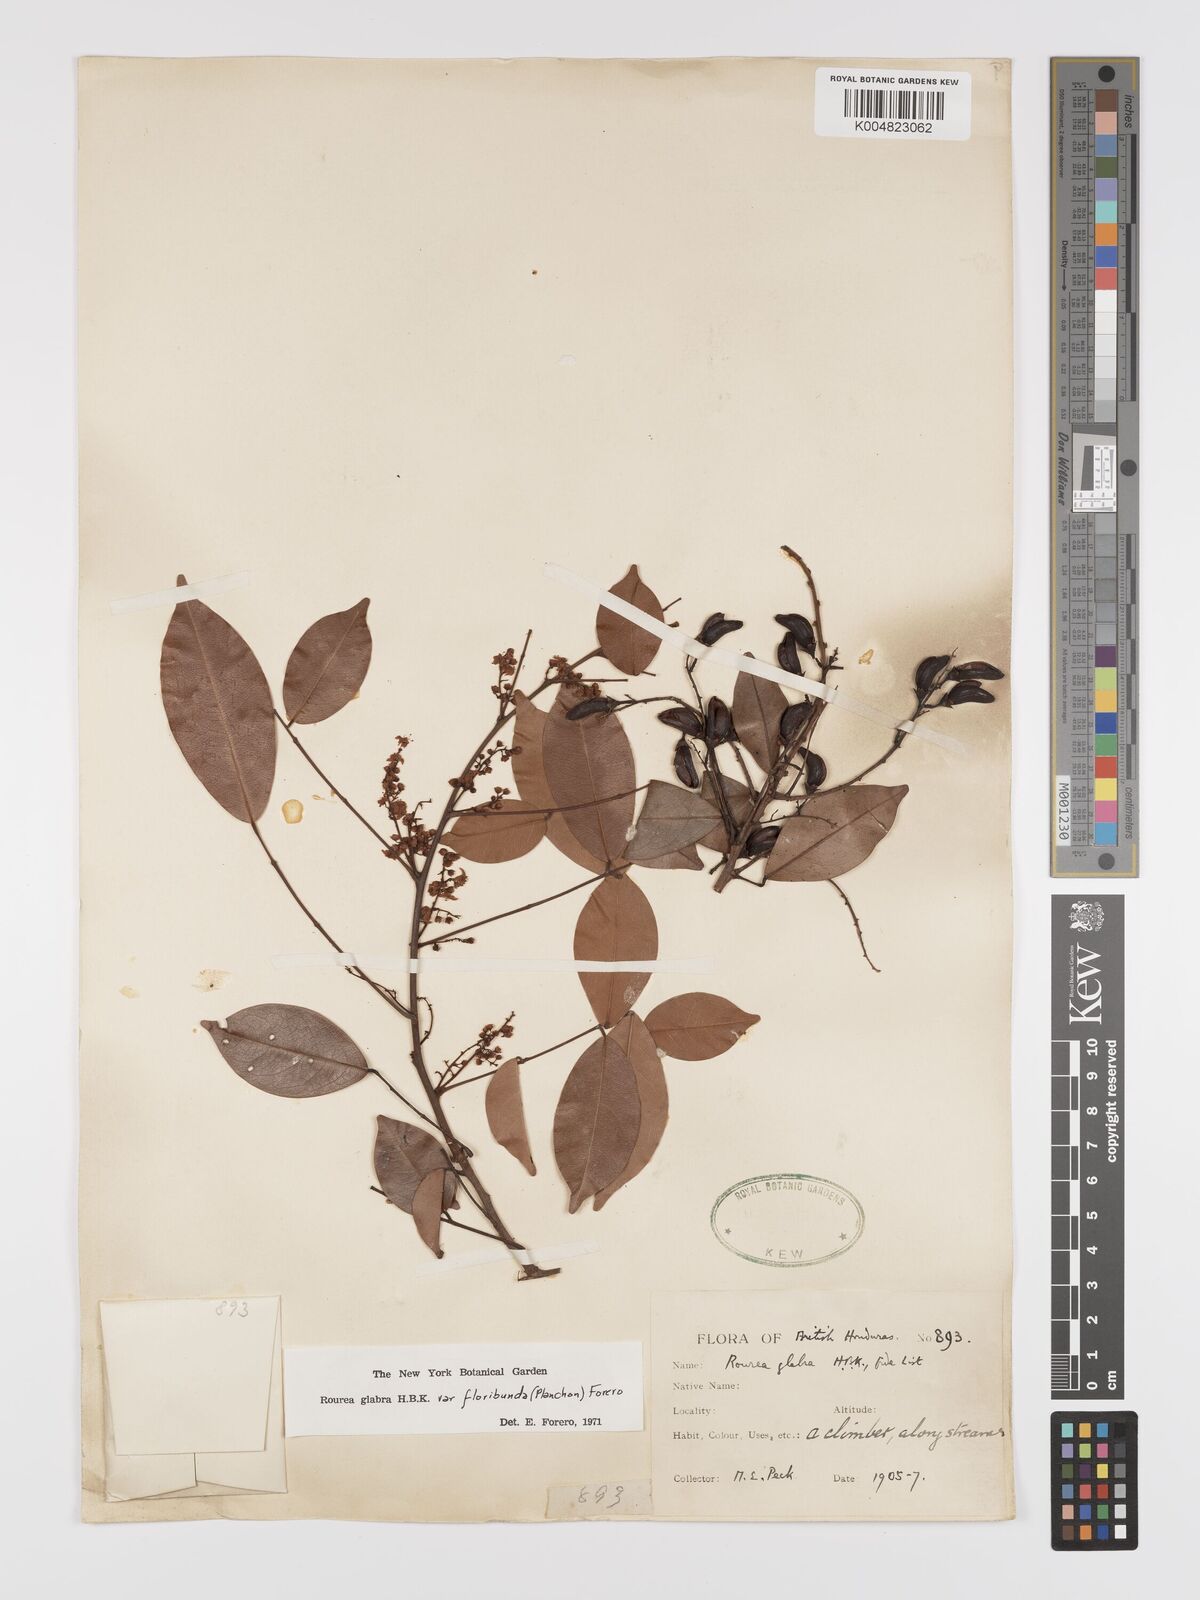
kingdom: Plantae
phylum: Tracheophyta
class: Magnoliopsida
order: Oxalidales
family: Connaraceae
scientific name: Connaraceae
